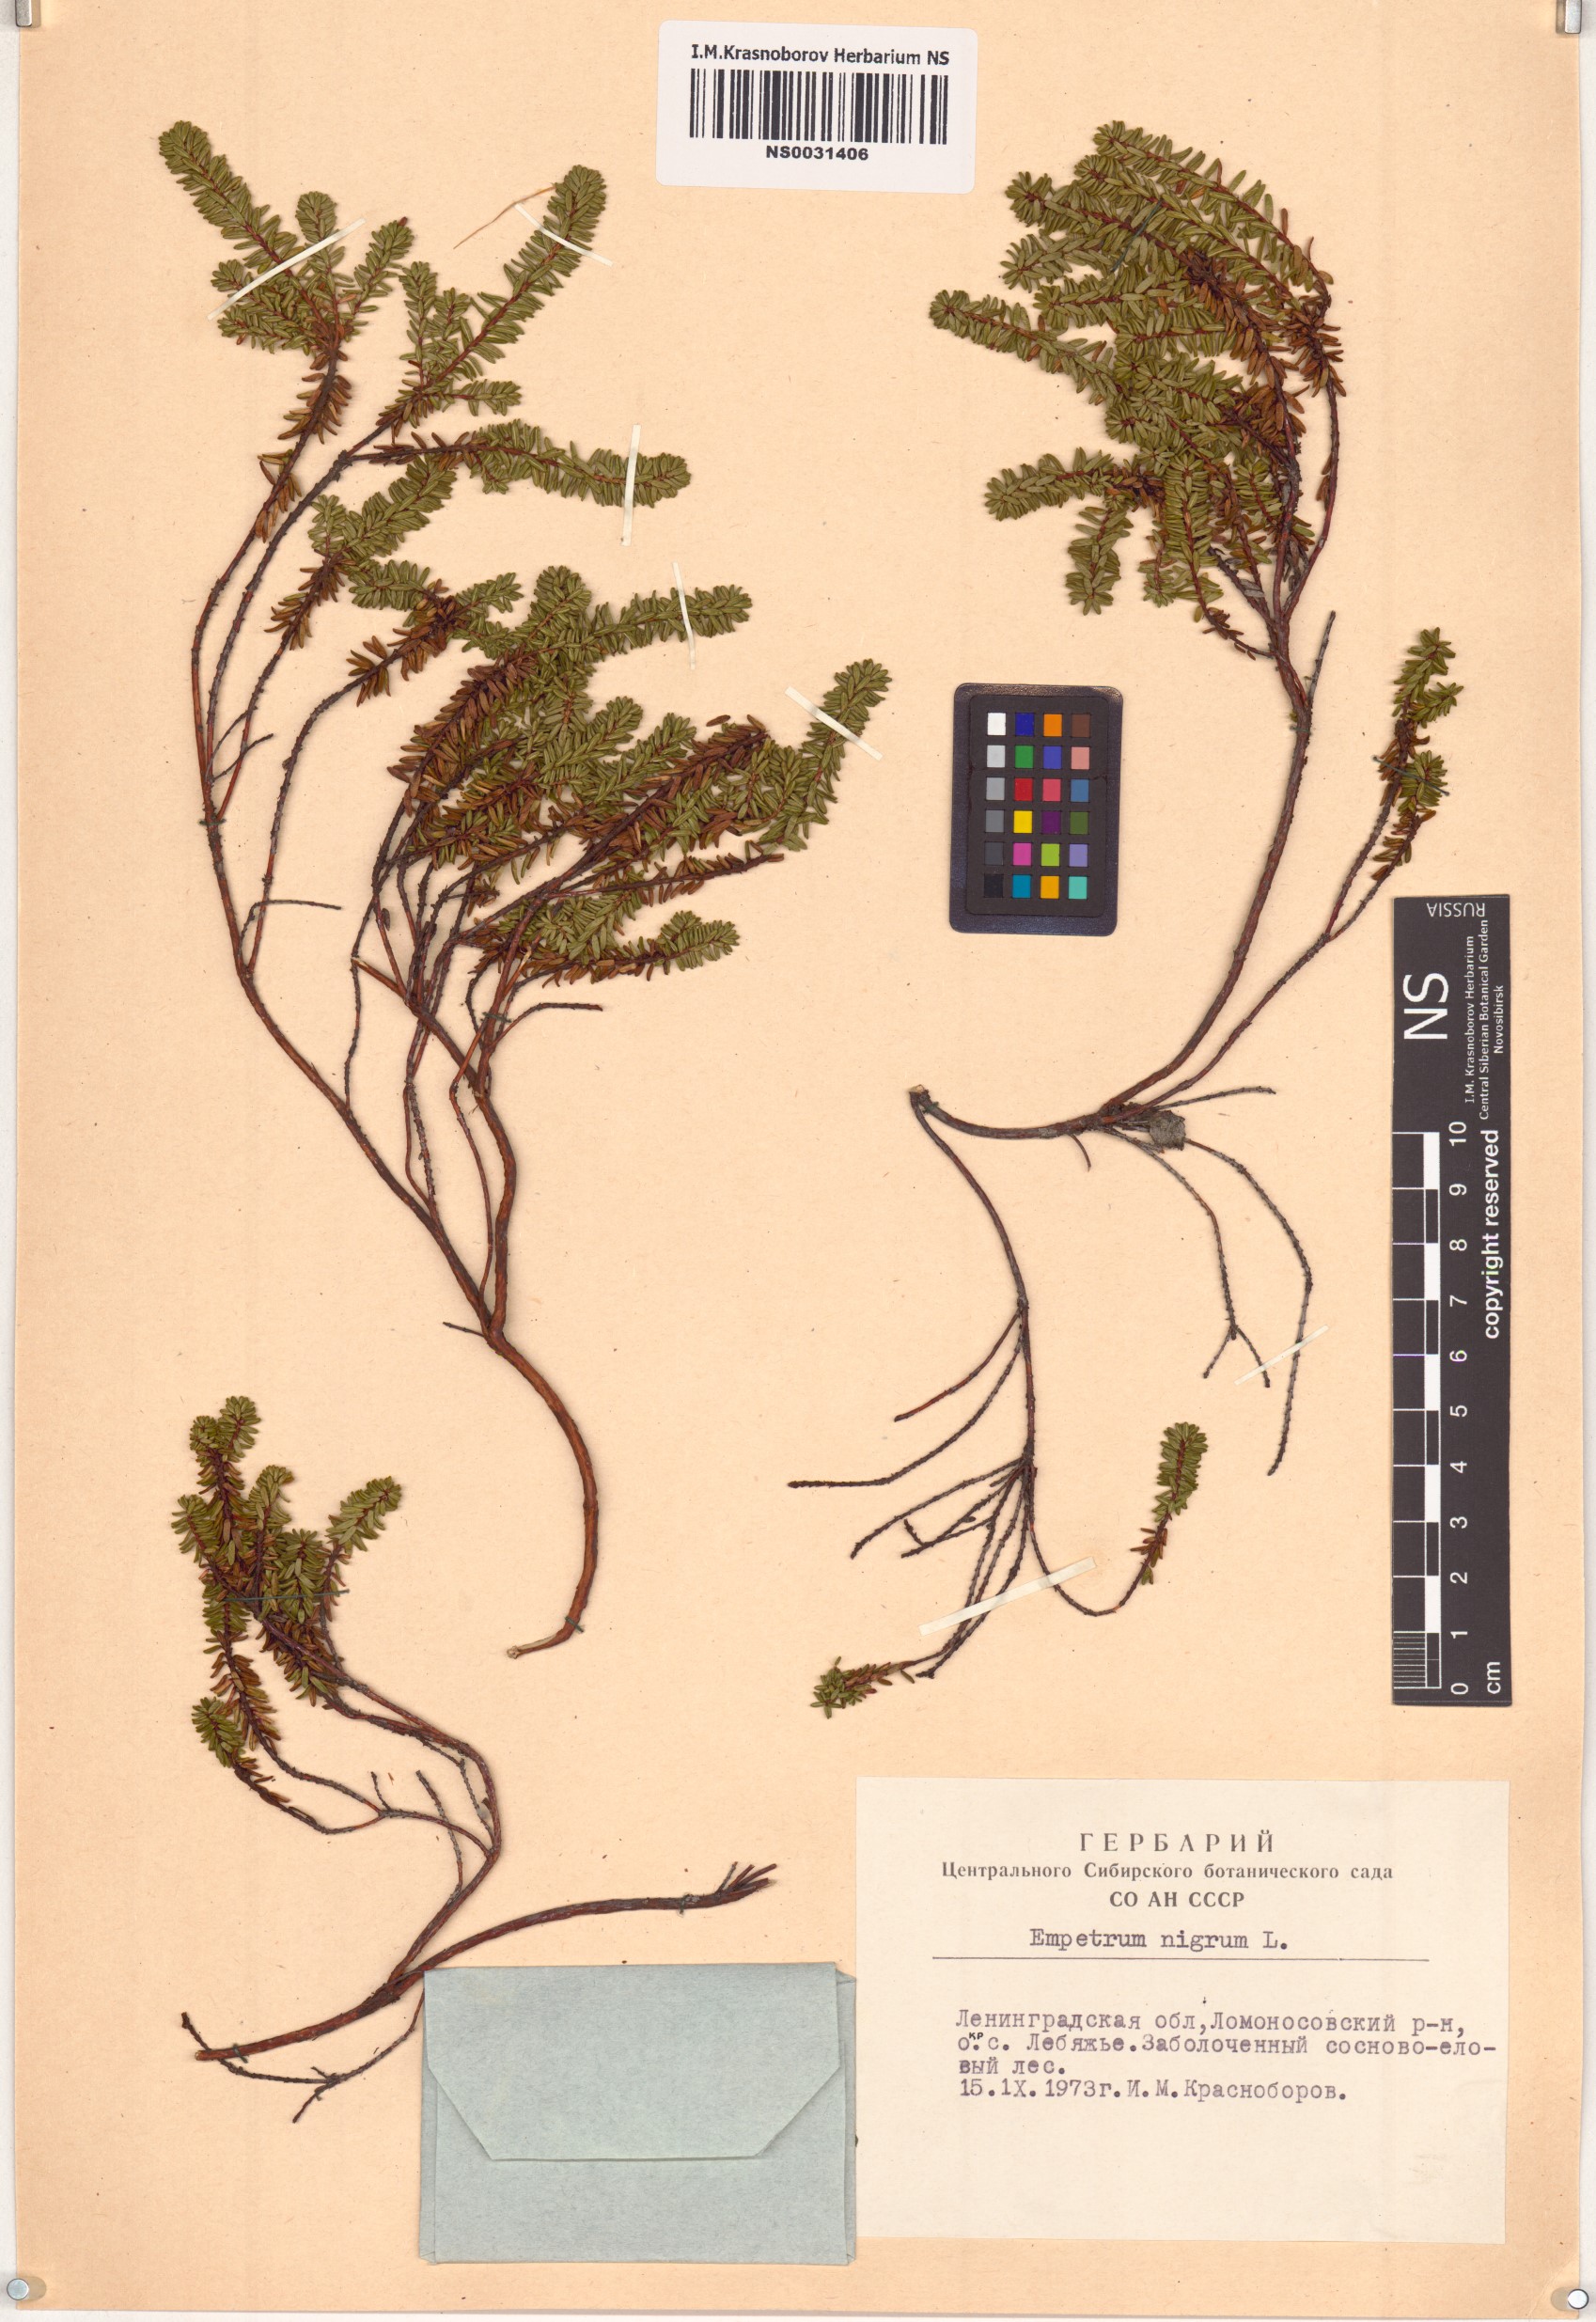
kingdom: Plantae
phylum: Tracheophyta
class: Magnoliopsida
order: Ericales
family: Ericaceae
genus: Empetrum
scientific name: Empetrum nigrum
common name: Black crowberry
